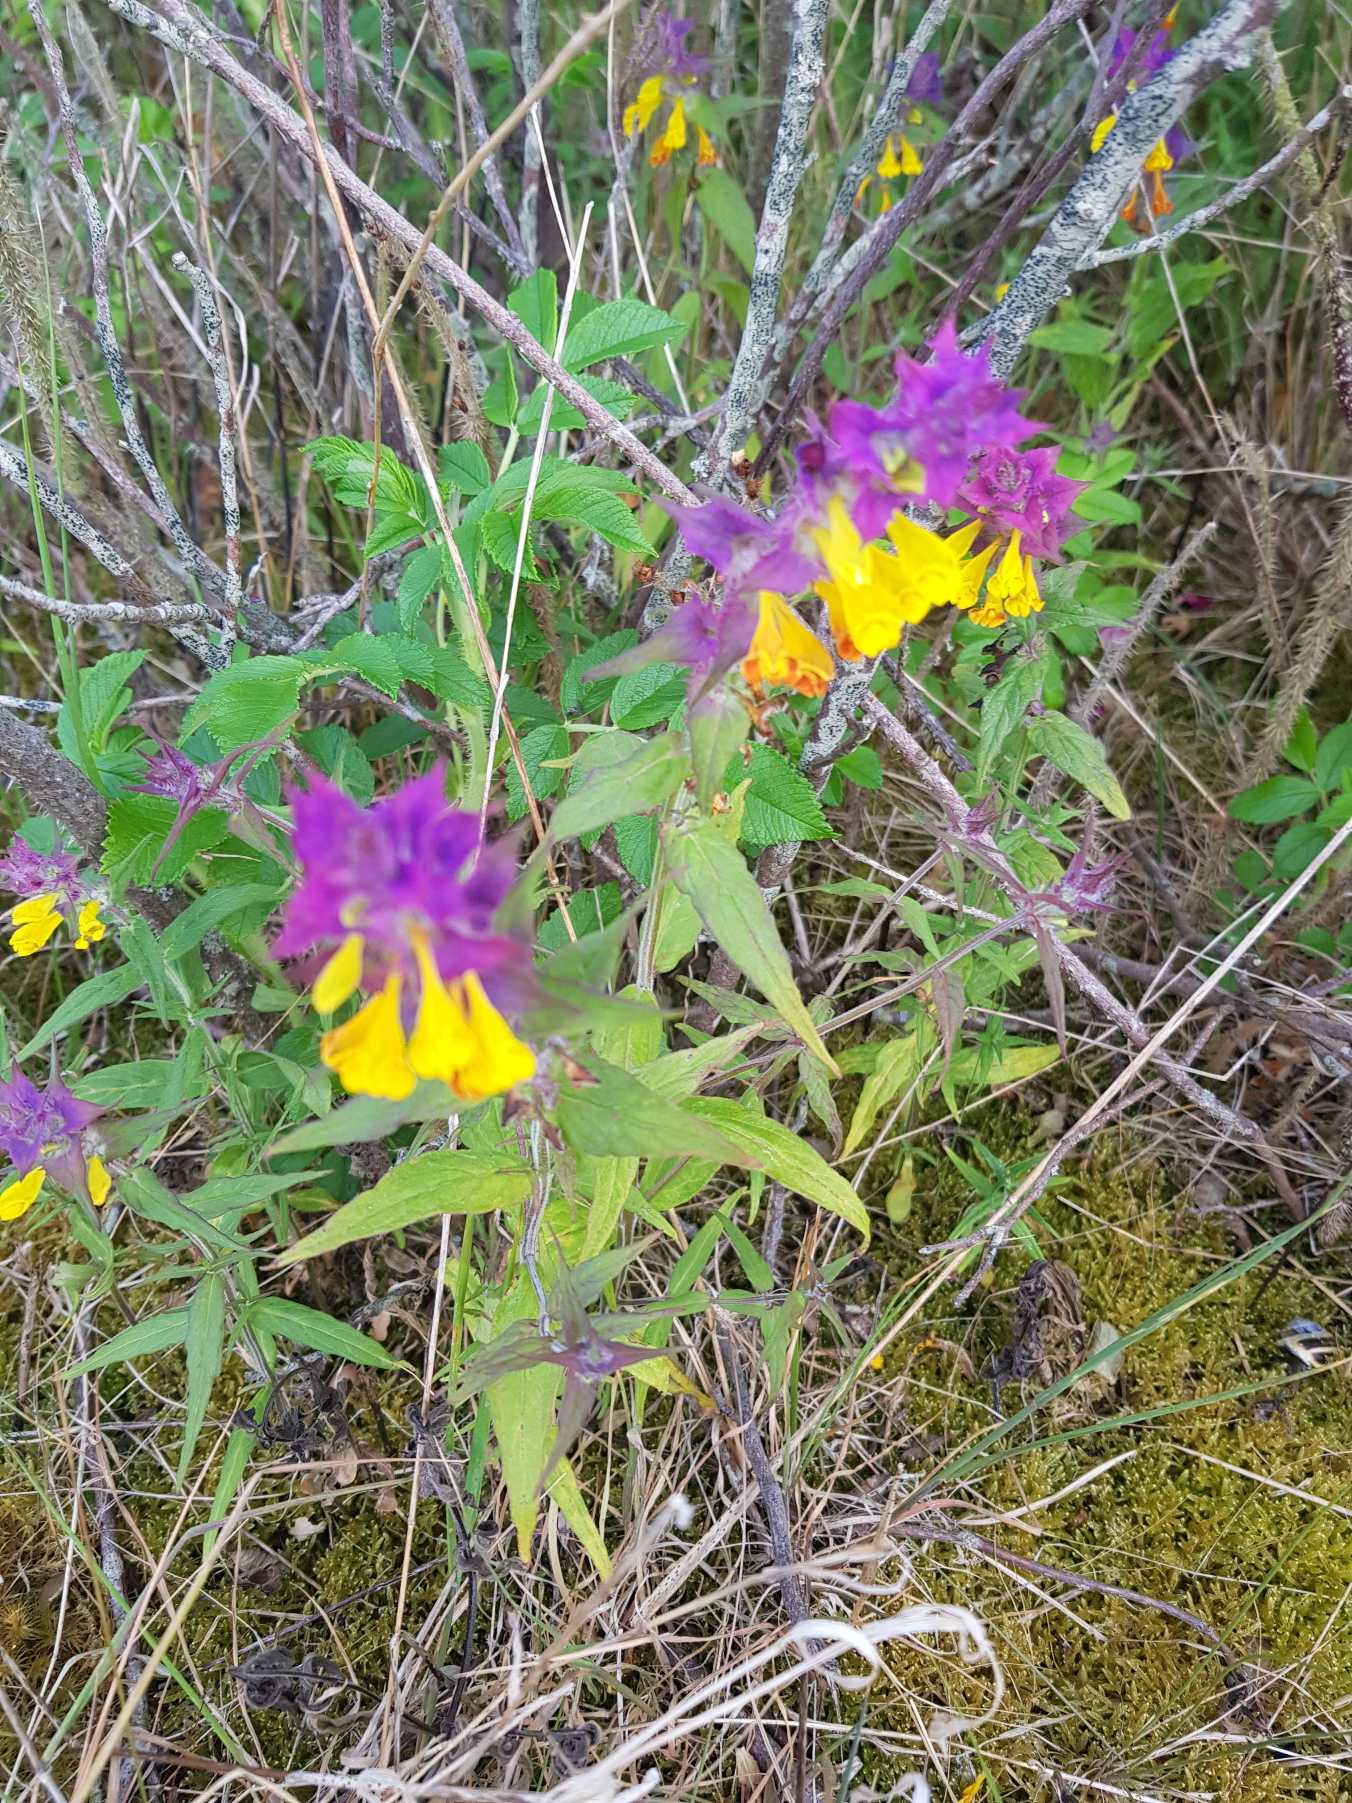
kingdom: Plantae
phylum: Tracheophyta
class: Magnoliopsida
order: Lamiales
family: Orobanchaceae
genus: Melampyrum
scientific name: Melampyrum nemorosum
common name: Blåtoppet kohvede
